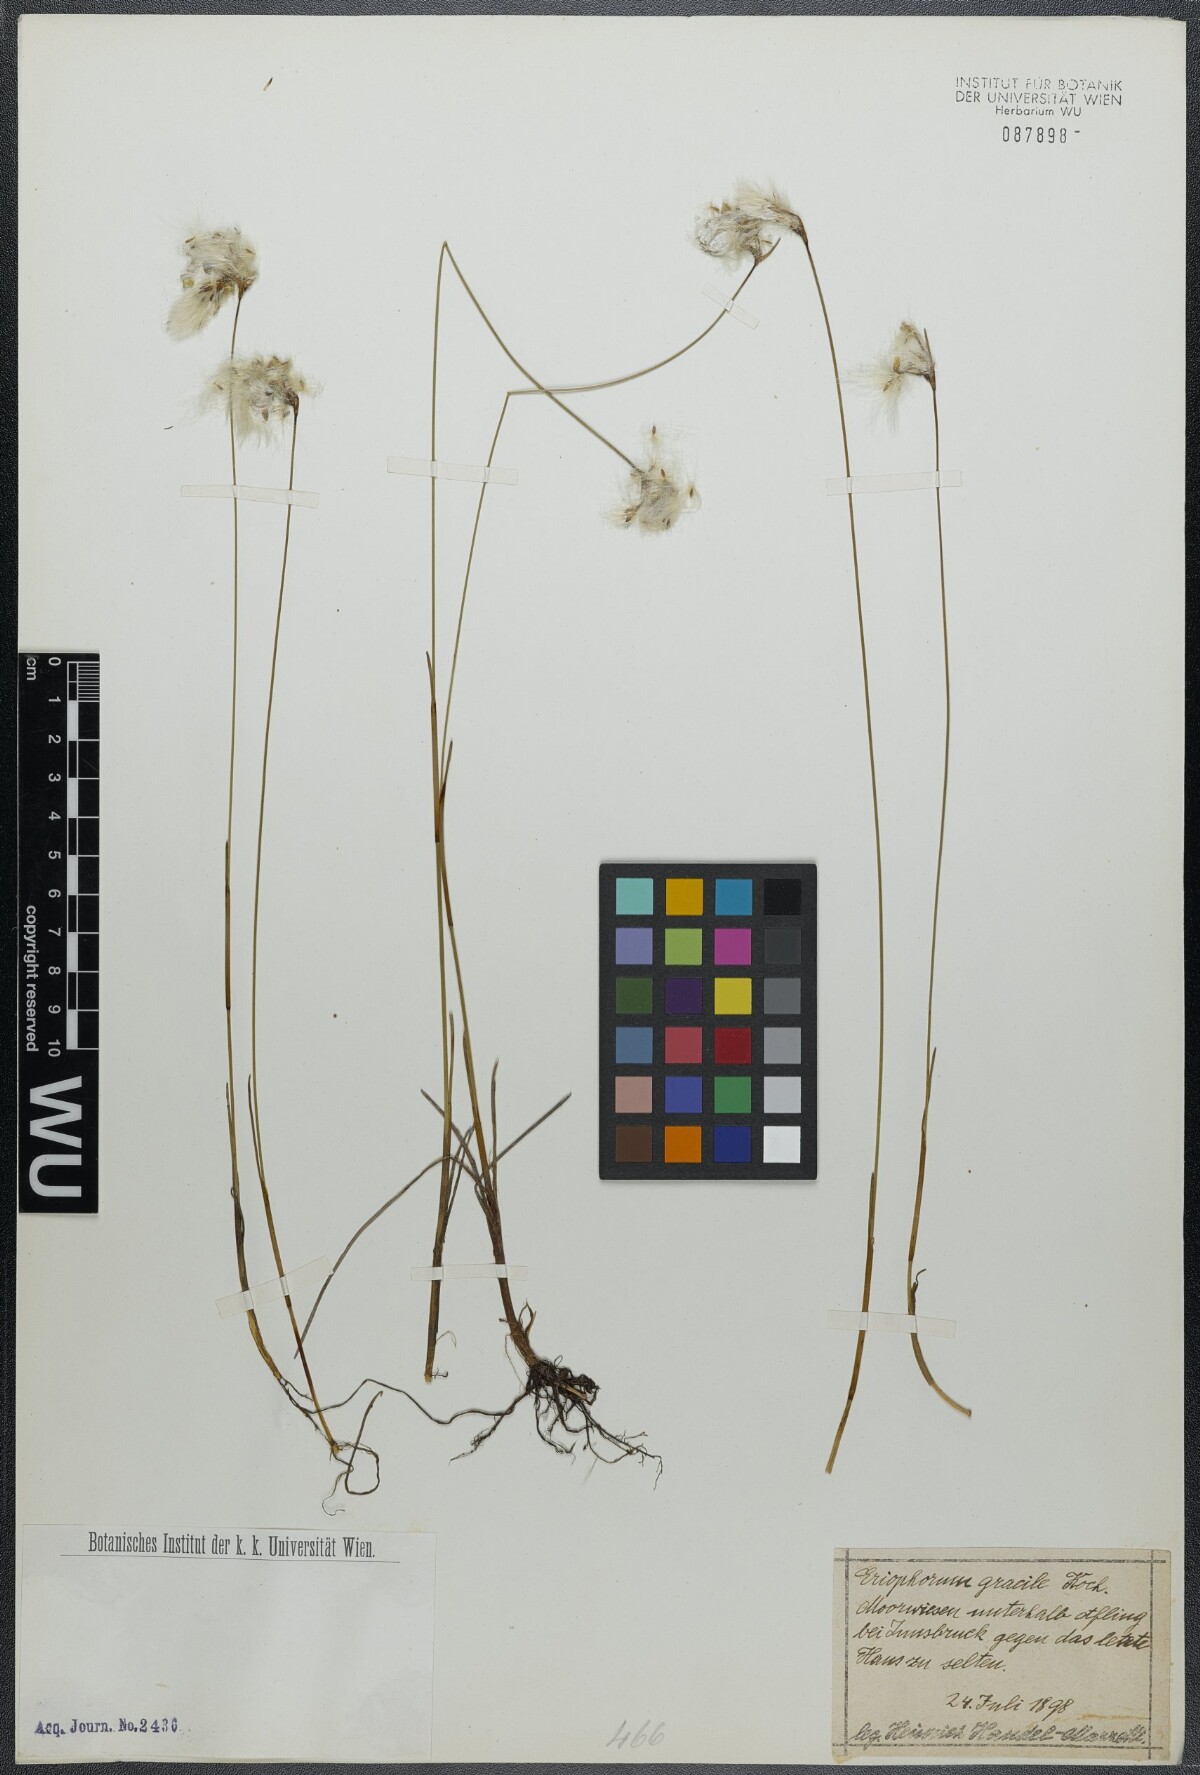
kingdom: Plantae
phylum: Tracheophyta
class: Liliopsida
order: Poales
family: Cyperaceae
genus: Eriophorum
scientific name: Eriophorum gracile
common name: Slender cottongrass
